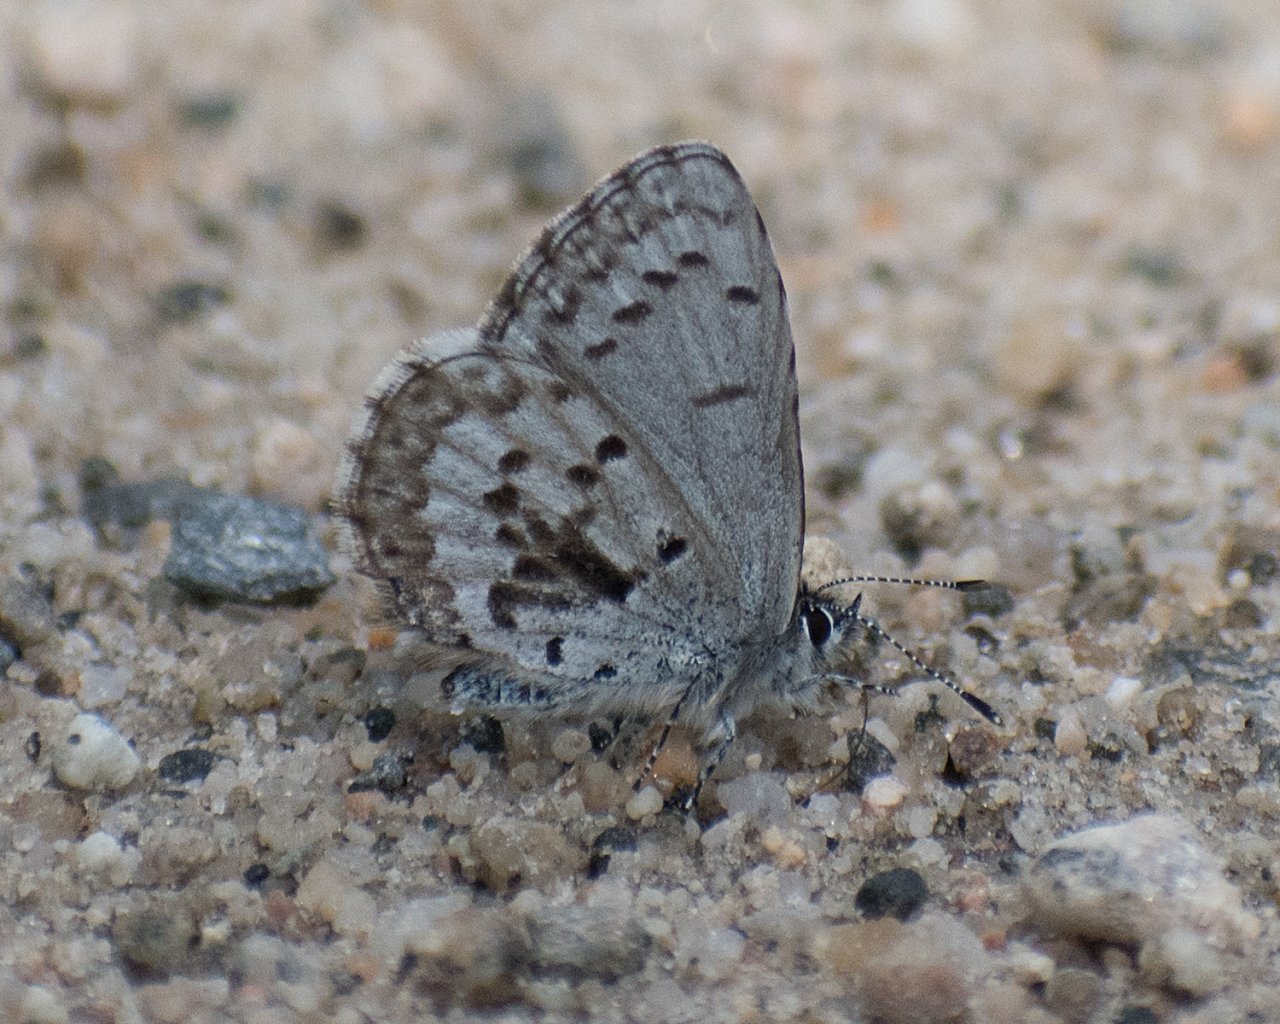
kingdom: Animalia
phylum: Arthropoda
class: Insecta
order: Lepidoptera
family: Lycaenidae
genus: Celastrina
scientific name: Celastrina ladon
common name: Echo Azure
